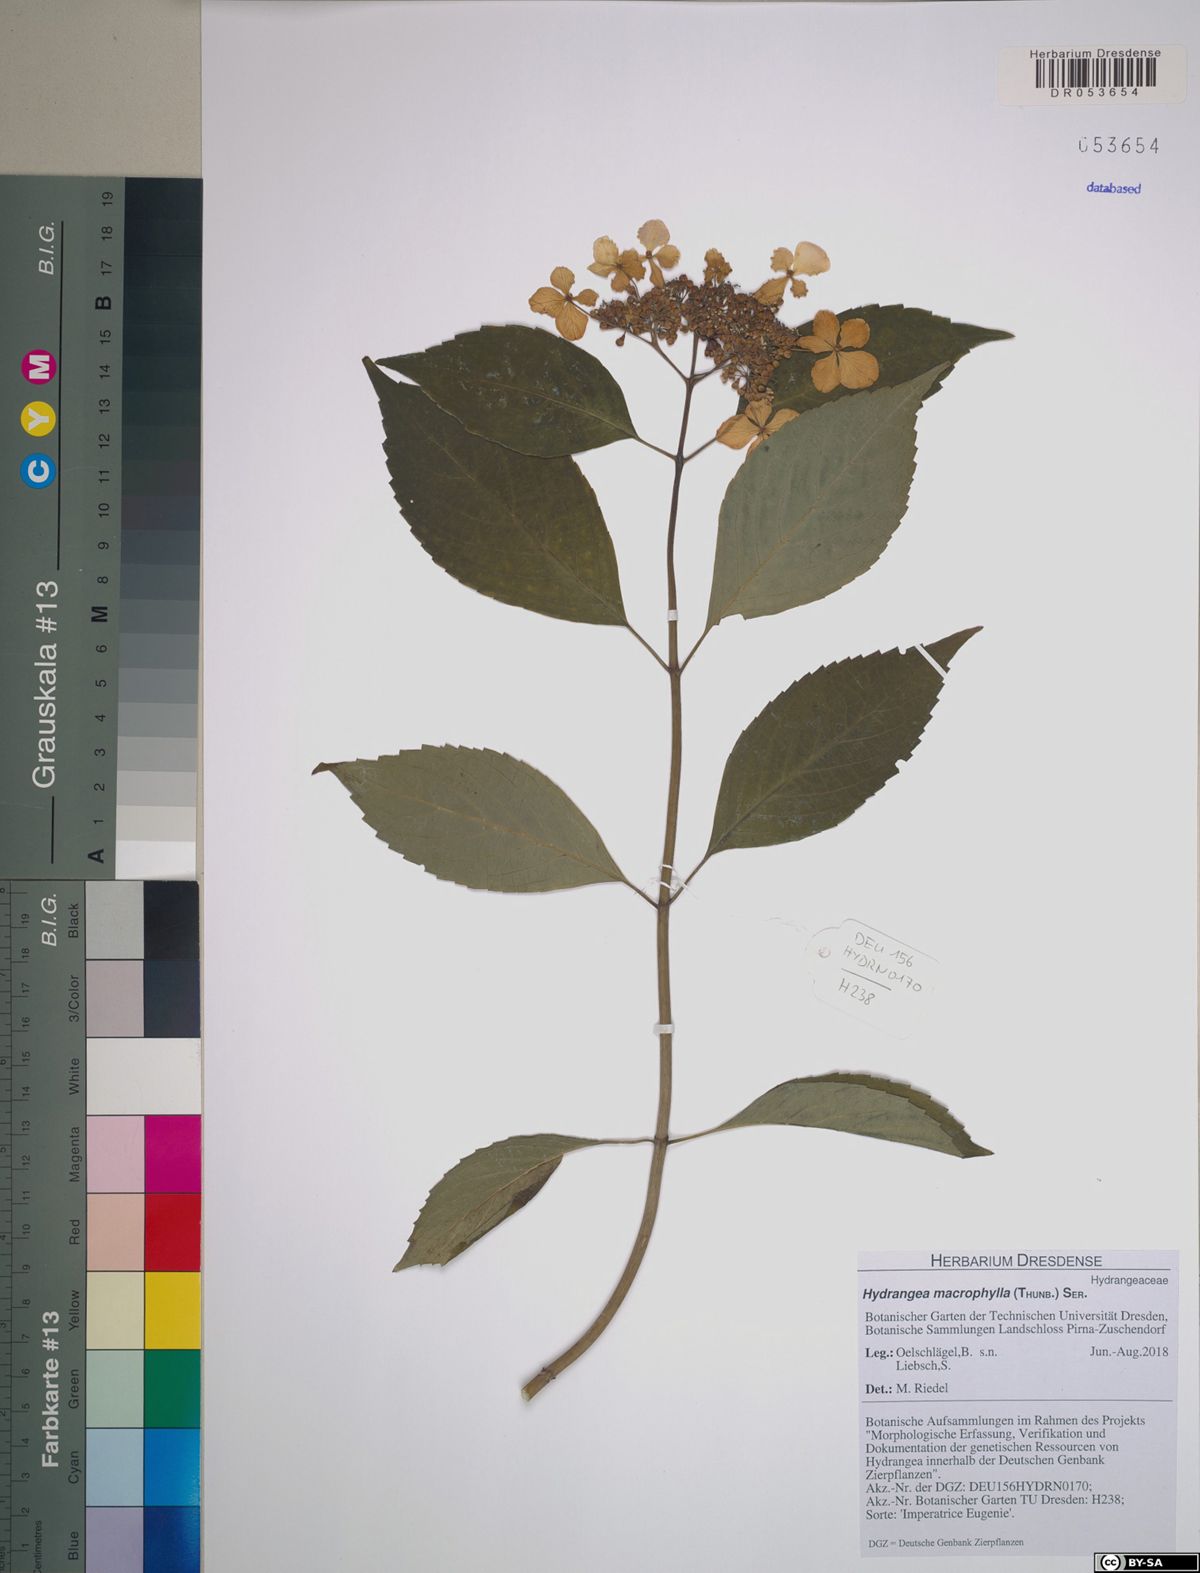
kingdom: Plantae
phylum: Tracheophyta
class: Magnoliopsida
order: Cornales
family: Hydrangeaceae
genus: Hydrangea
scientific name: Hydrangea macrophylla
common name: Hydrangea
